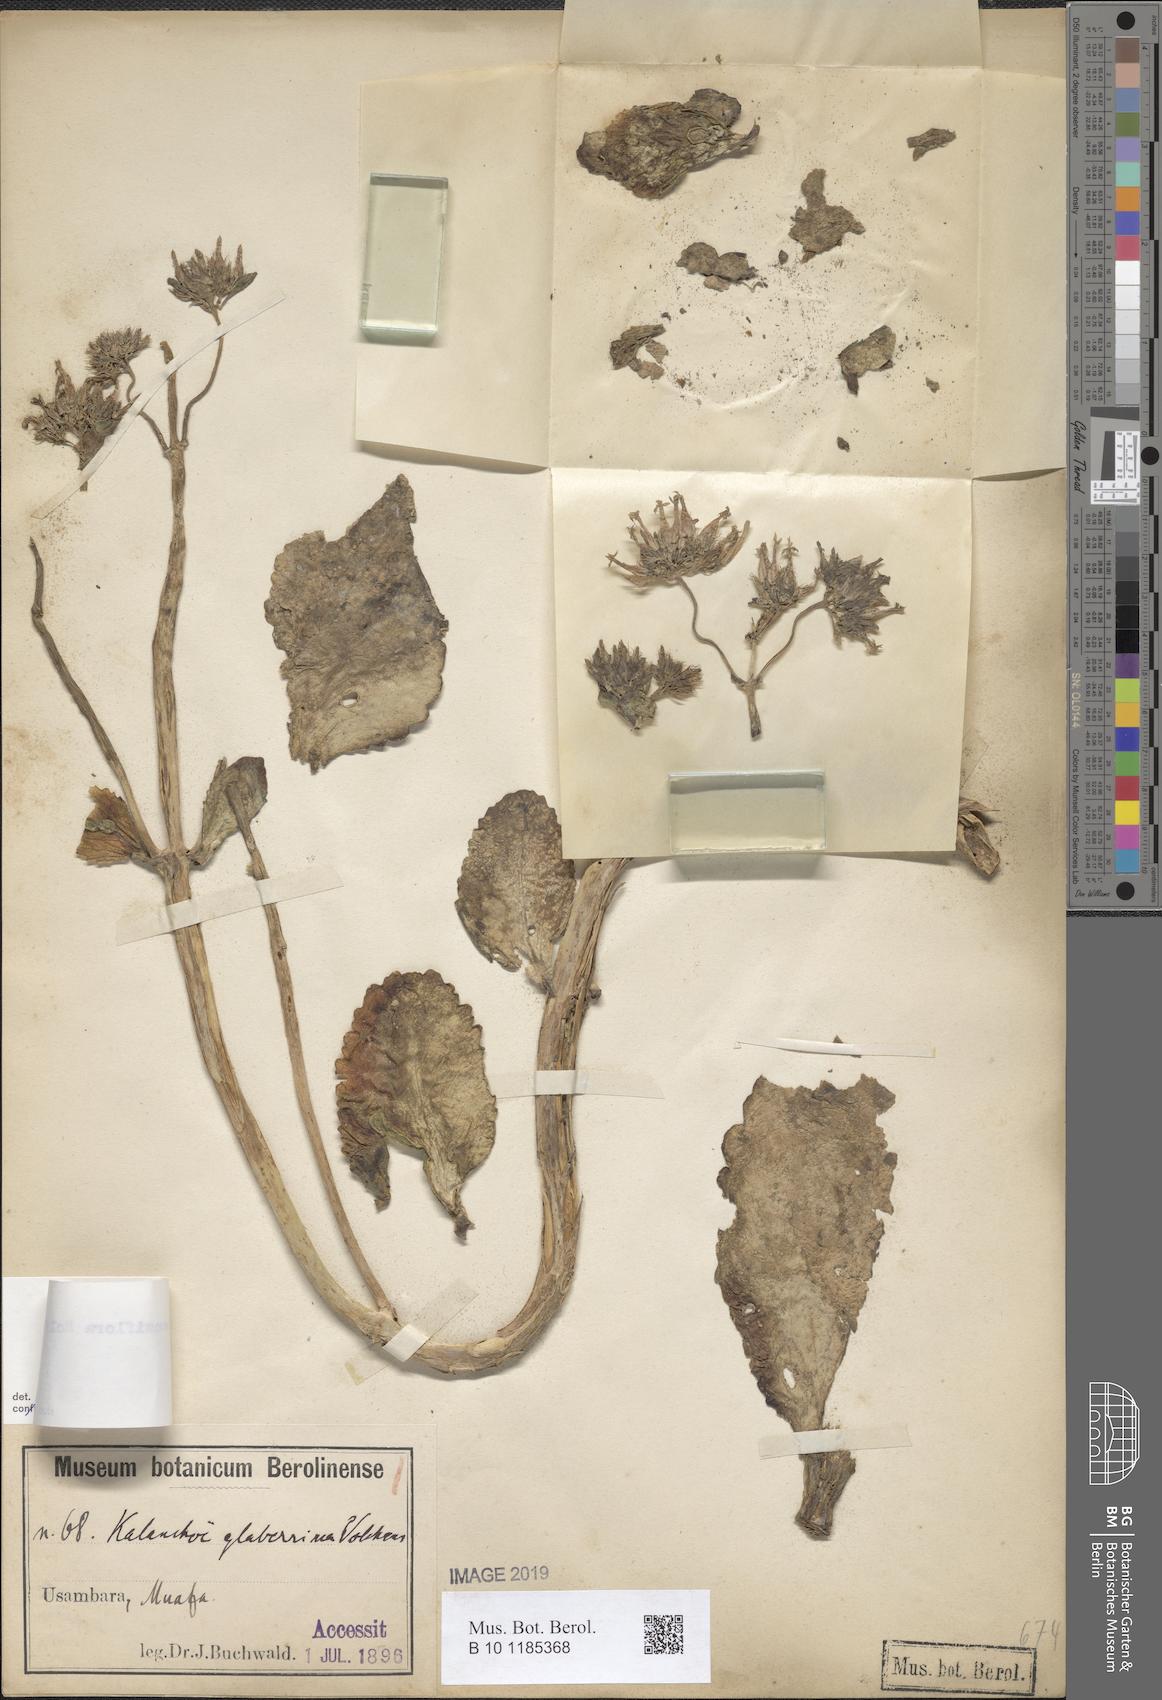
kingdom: Plantae
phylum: Tracheophyta
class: Magnoliopsida
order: Saxifragales
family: Crassulaceae
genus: Kalanchoe
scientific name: Kalanchoe densiflora
